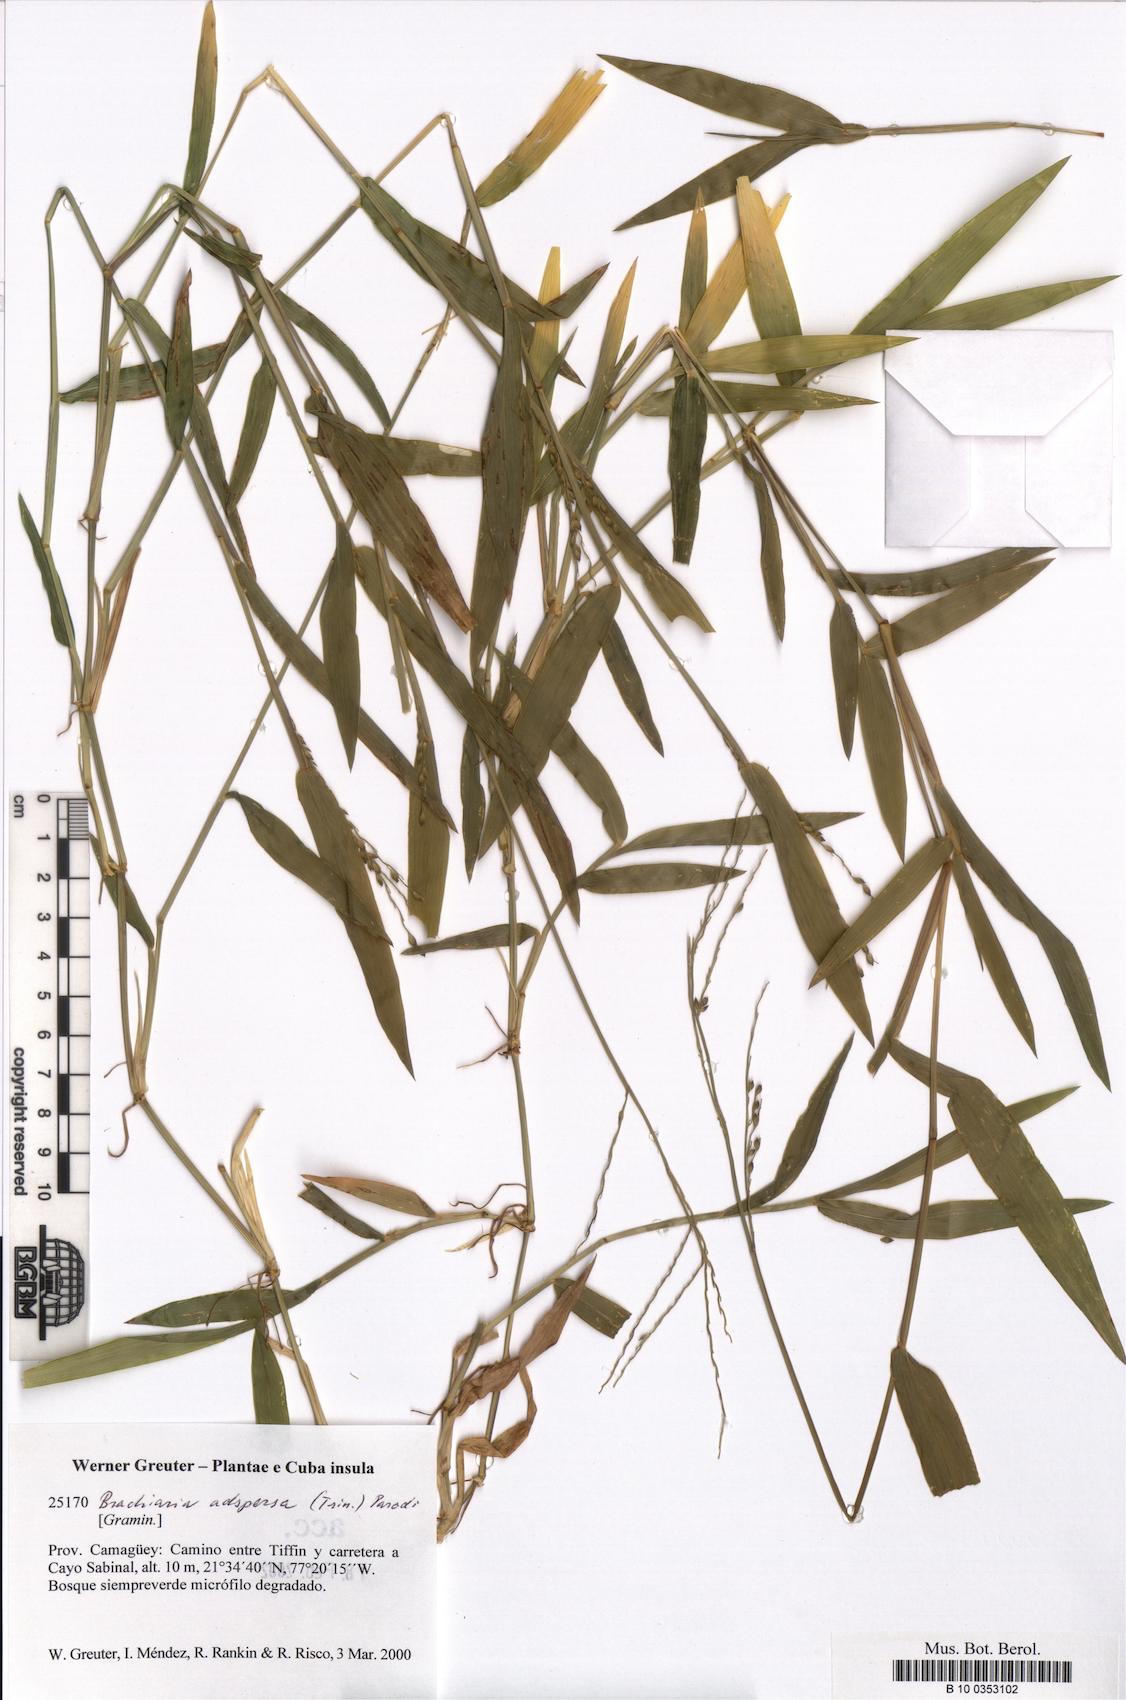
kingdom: Plantae
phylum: Tracheophyta
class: Liliopsida
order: Poales
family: Poaceae
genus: Urochloa
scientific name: Urochloa adspersa
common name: Dominican signal grass
